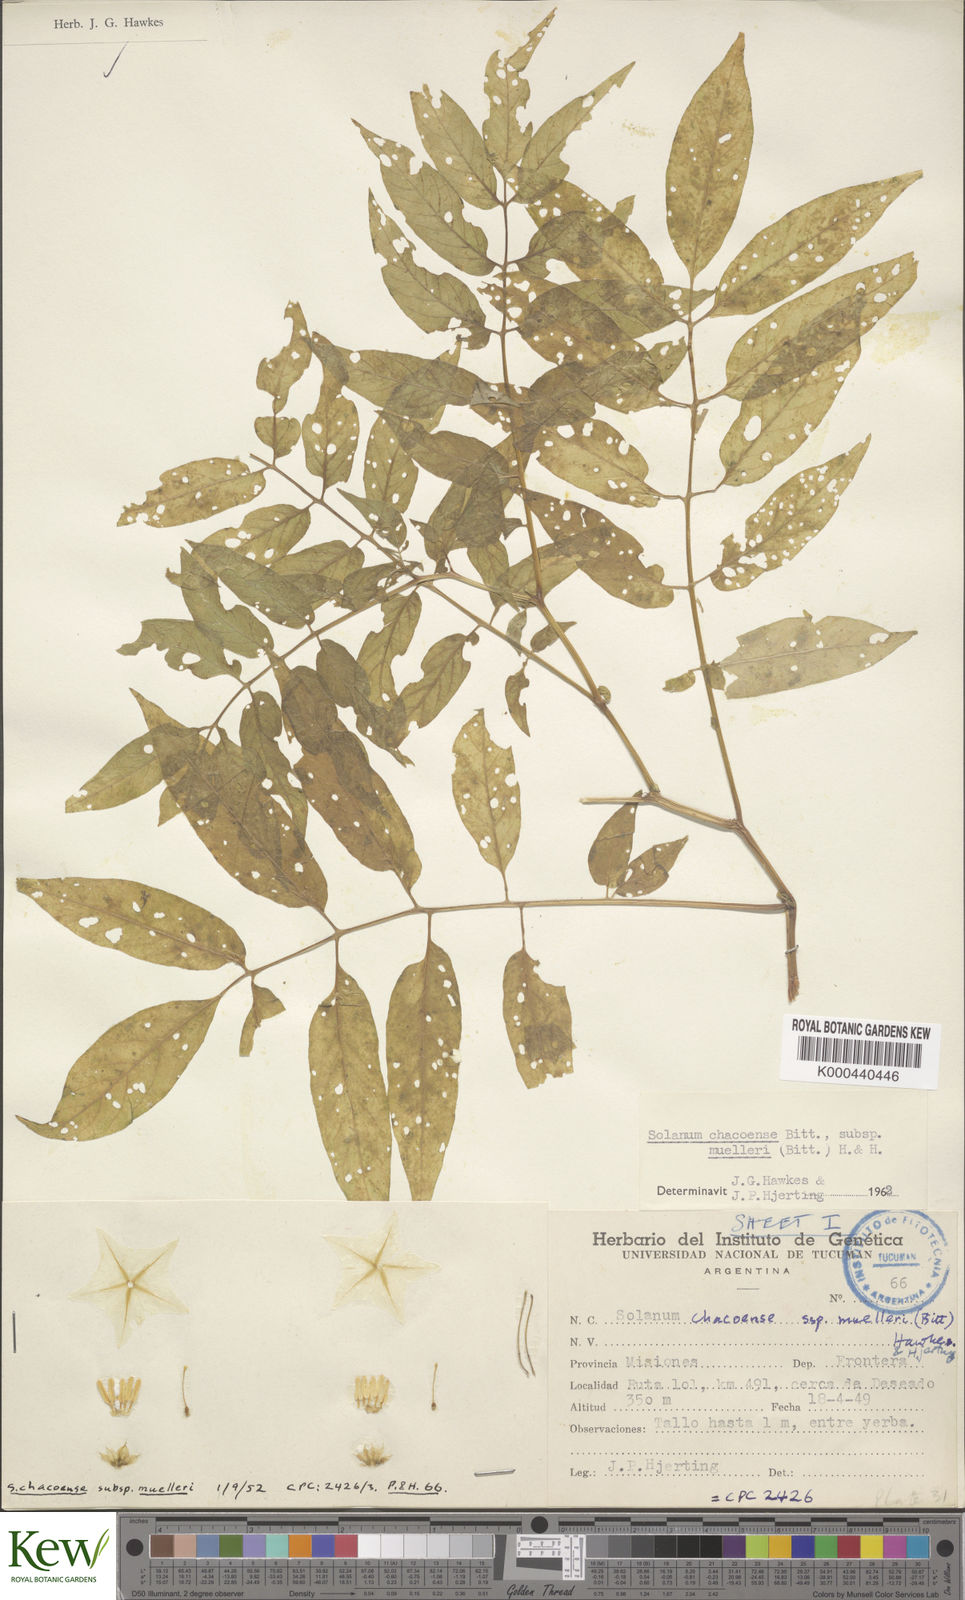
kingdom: Plantae
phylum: Tracheophyta
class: Magnoliopsida
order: Solanales
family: Solanaceae
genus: Solanum
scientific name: Solanum chacoense
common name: Chaco potato
